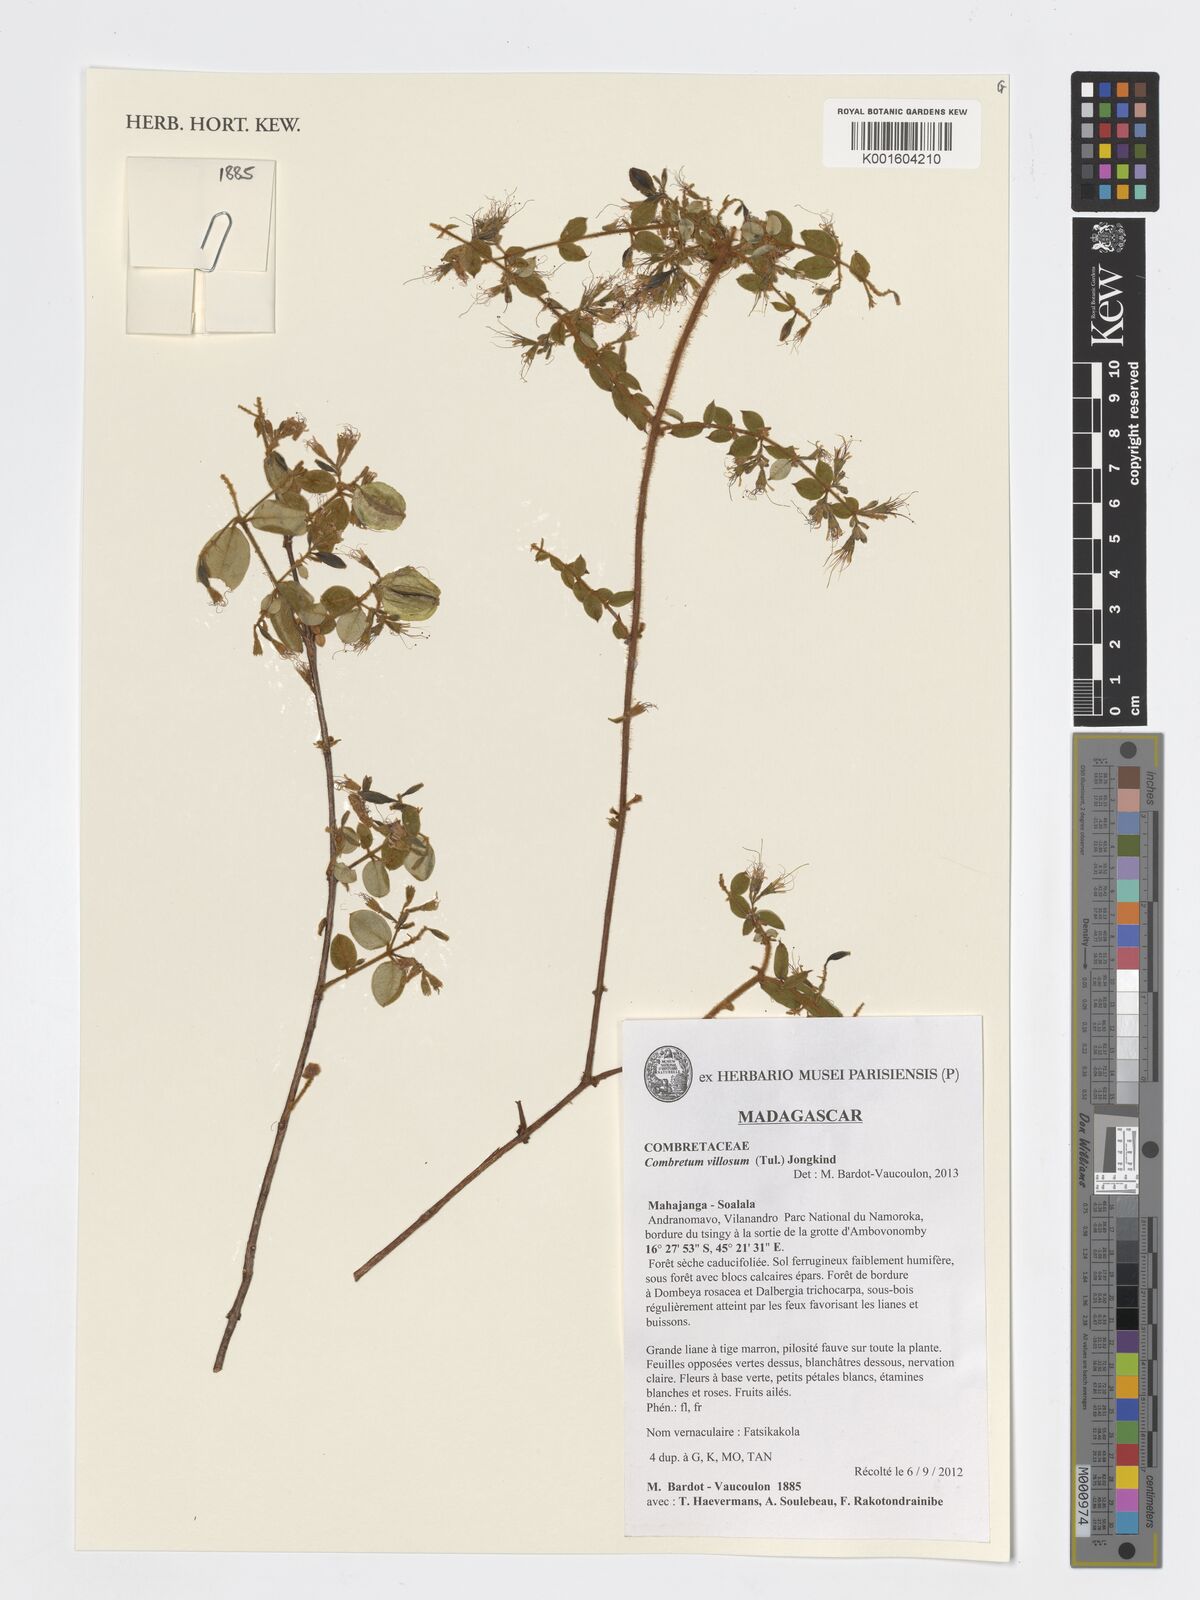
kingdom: Plantae
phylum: Tracheophyta
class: Magnoliopsida
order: Myrtales
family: Combretaceae
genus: Combretum
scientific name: Combretum villosum
